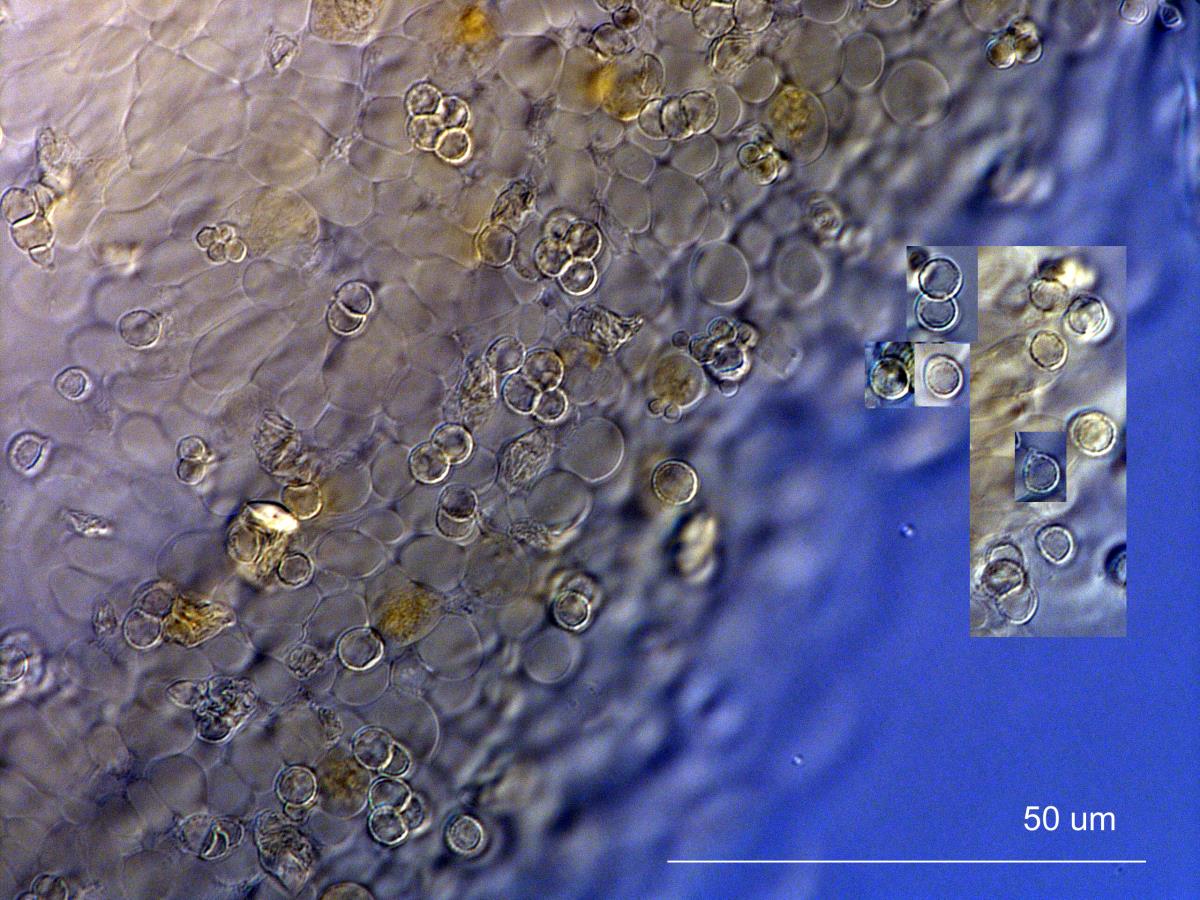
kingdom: Fungi
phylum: Basidiomycota
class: Agaricomycetes
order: Agaricales
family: Amanitaceae
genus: Limacella
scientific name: Limacella wheroparaonea
